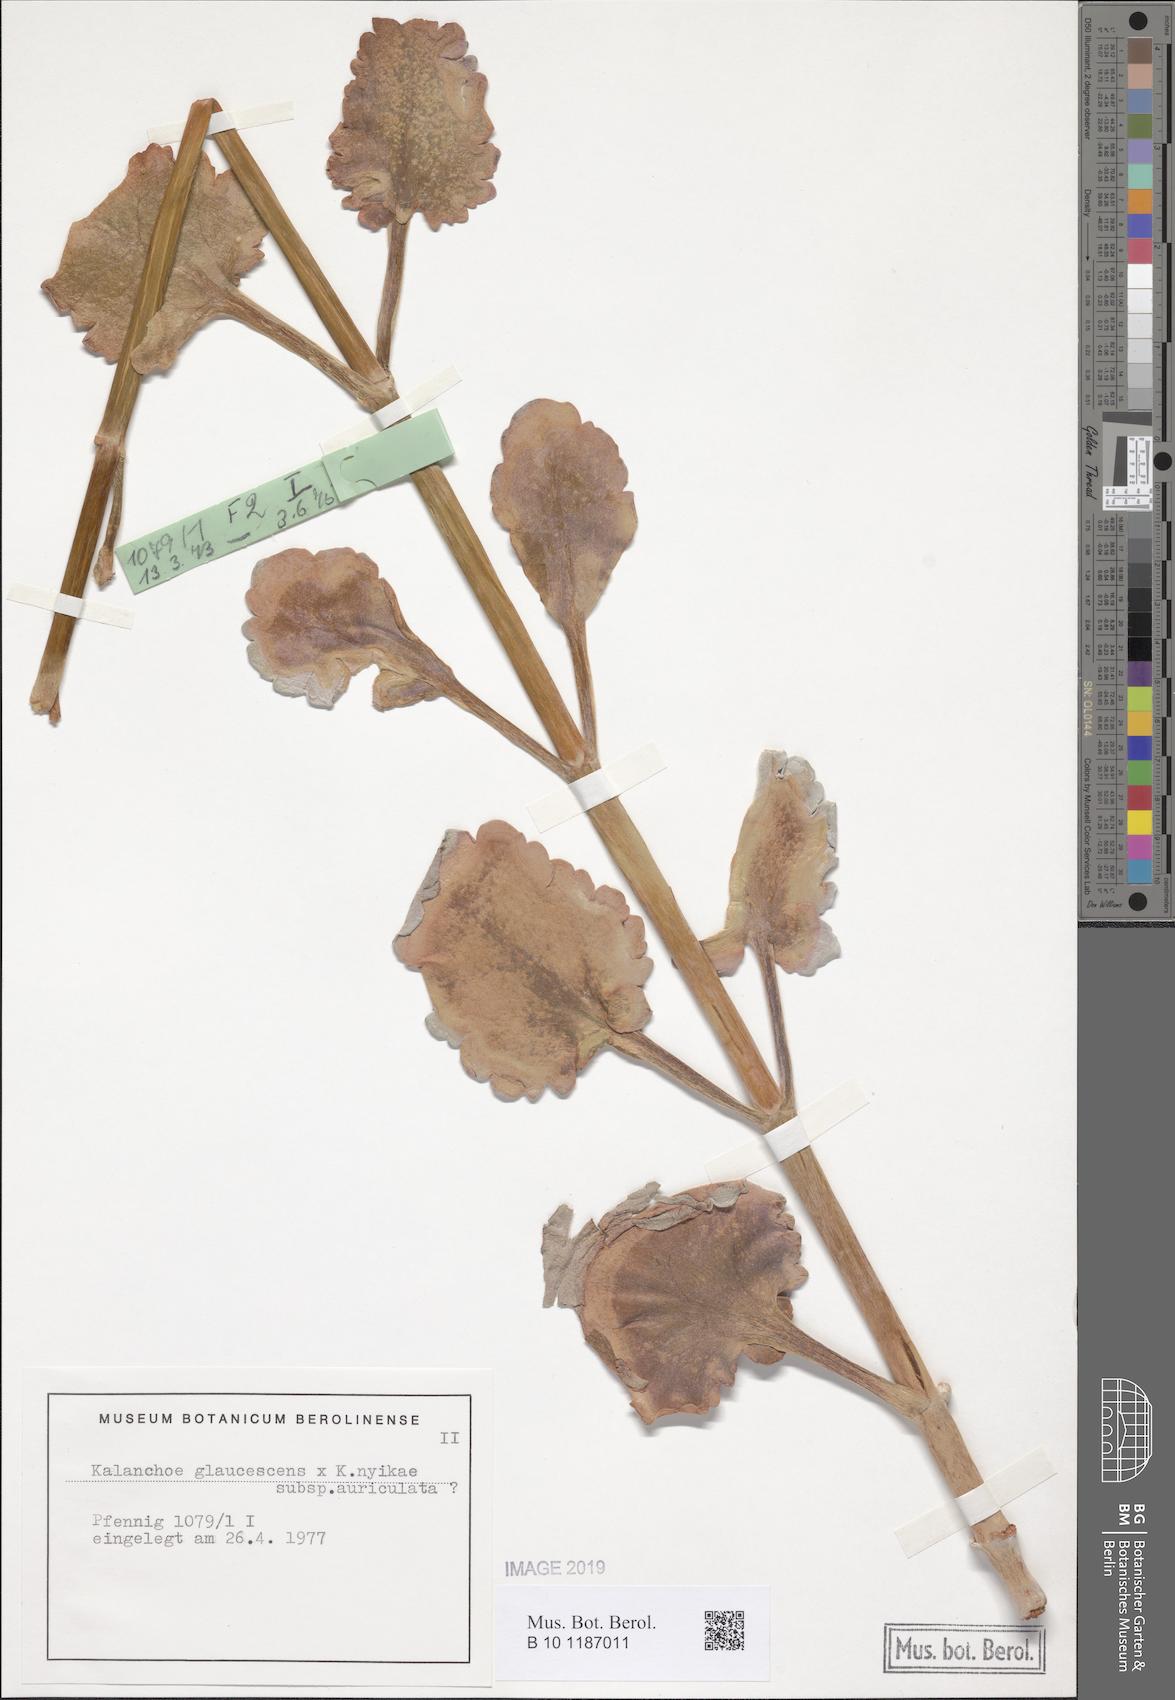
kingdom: Plantae
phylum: Tracheophyta
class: Magnoliopsida
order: Saxifragales
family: Crassulaceae
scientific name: Crassulaceae
